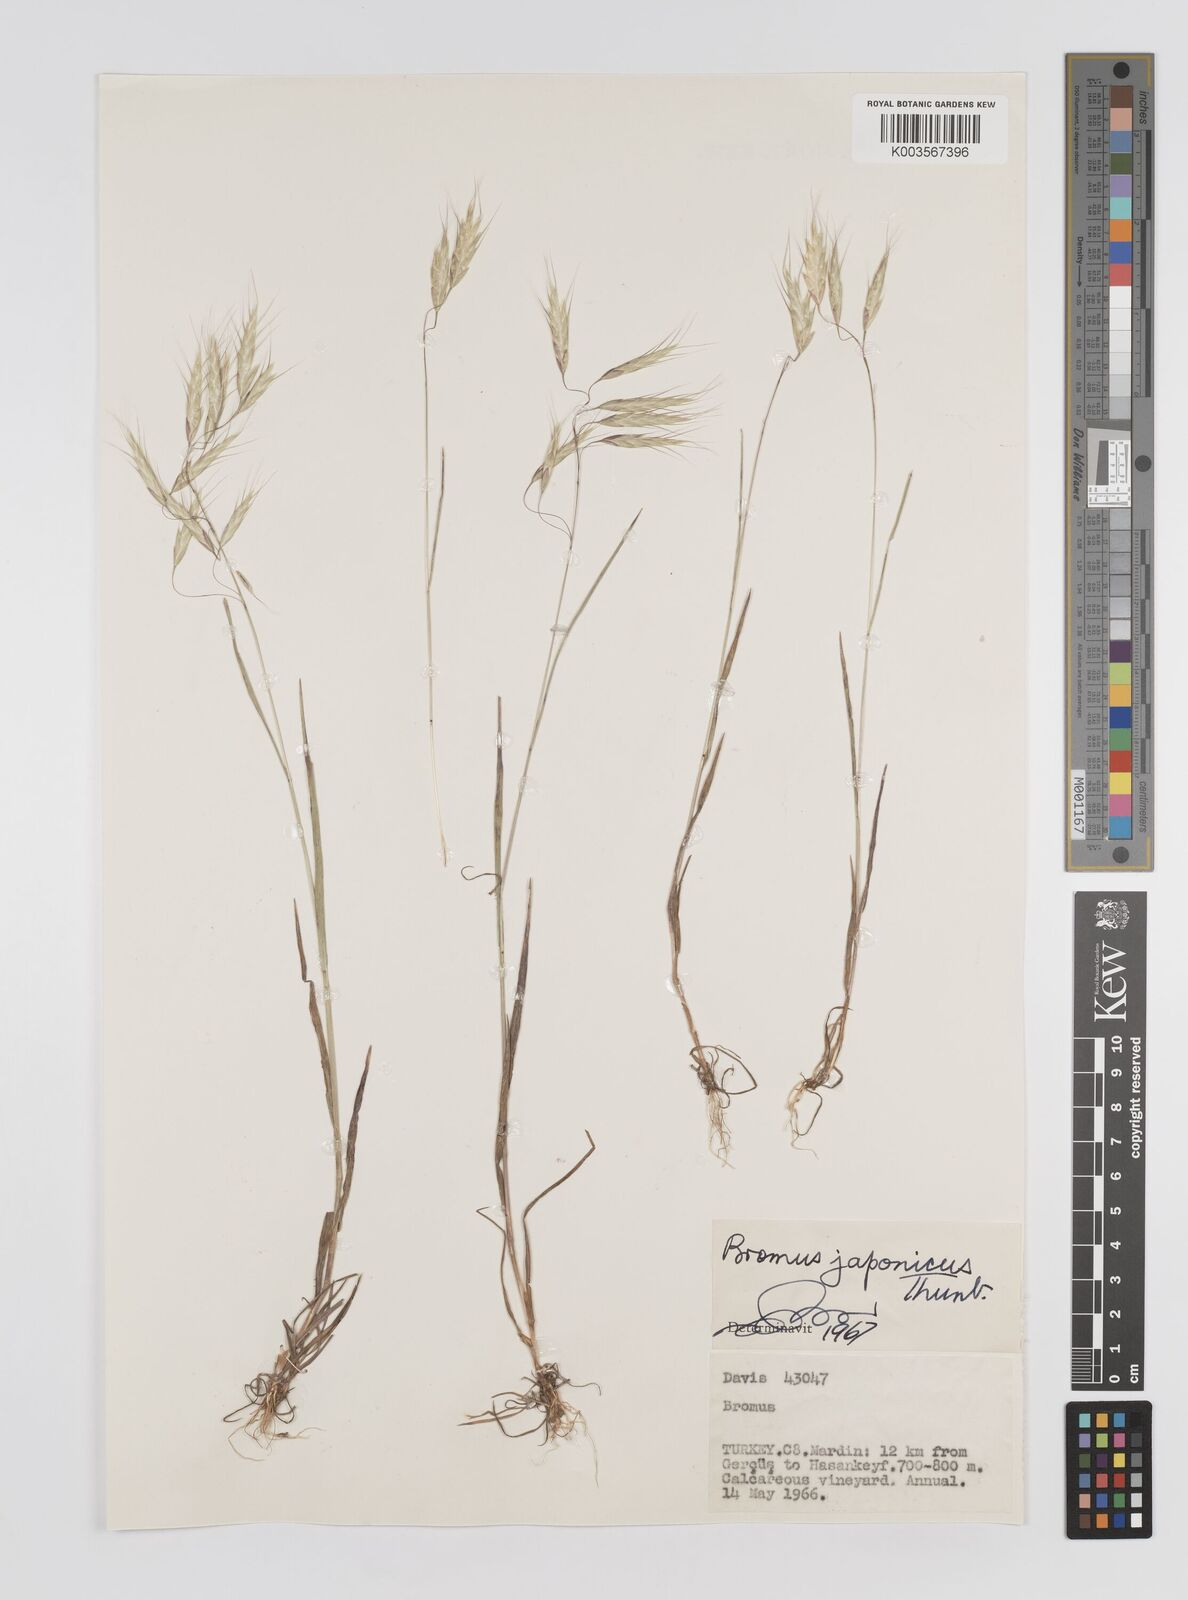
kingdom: Plantae
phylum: Tracheophyta
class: Liliopsida
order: Poales
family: Poaceae
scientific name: Poaceae
